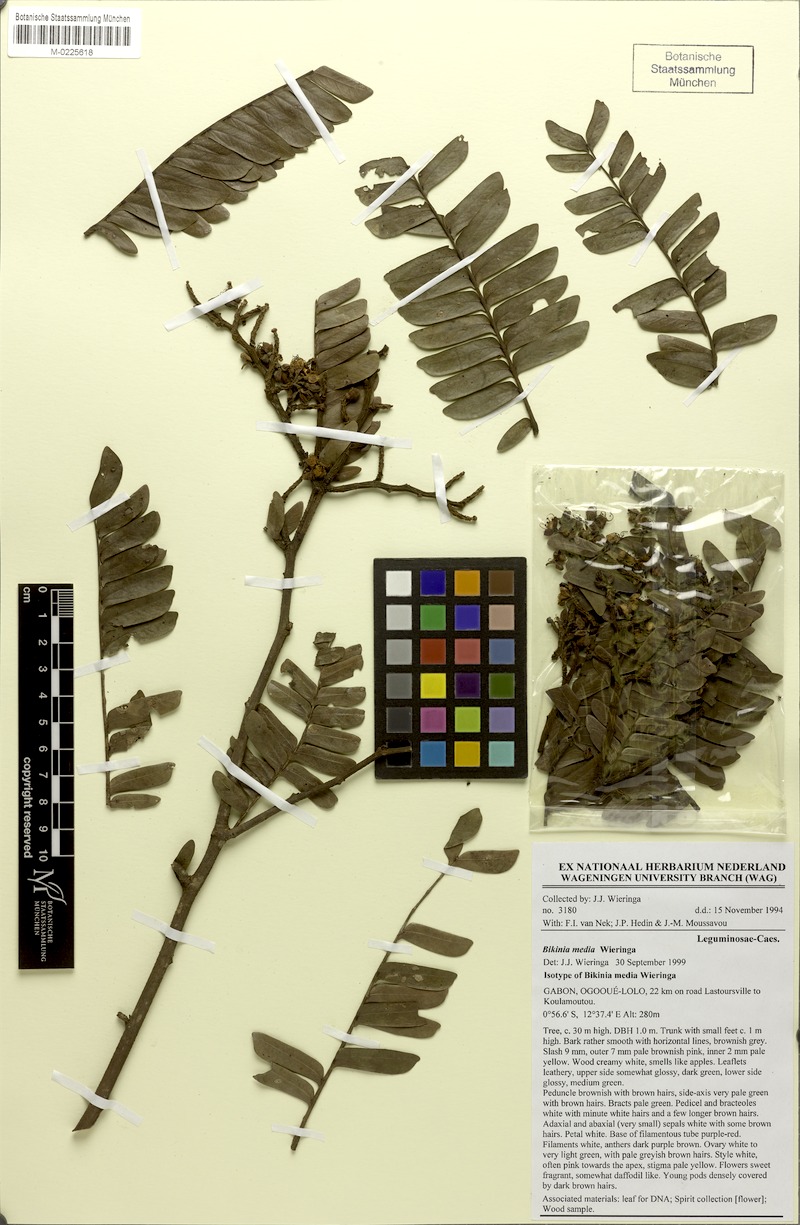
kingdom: Plantae
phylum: Tracheophyta
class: Magnoliopsida
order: Fabales
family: Fabaceae
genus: Bikinia
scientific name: Bikinia media
